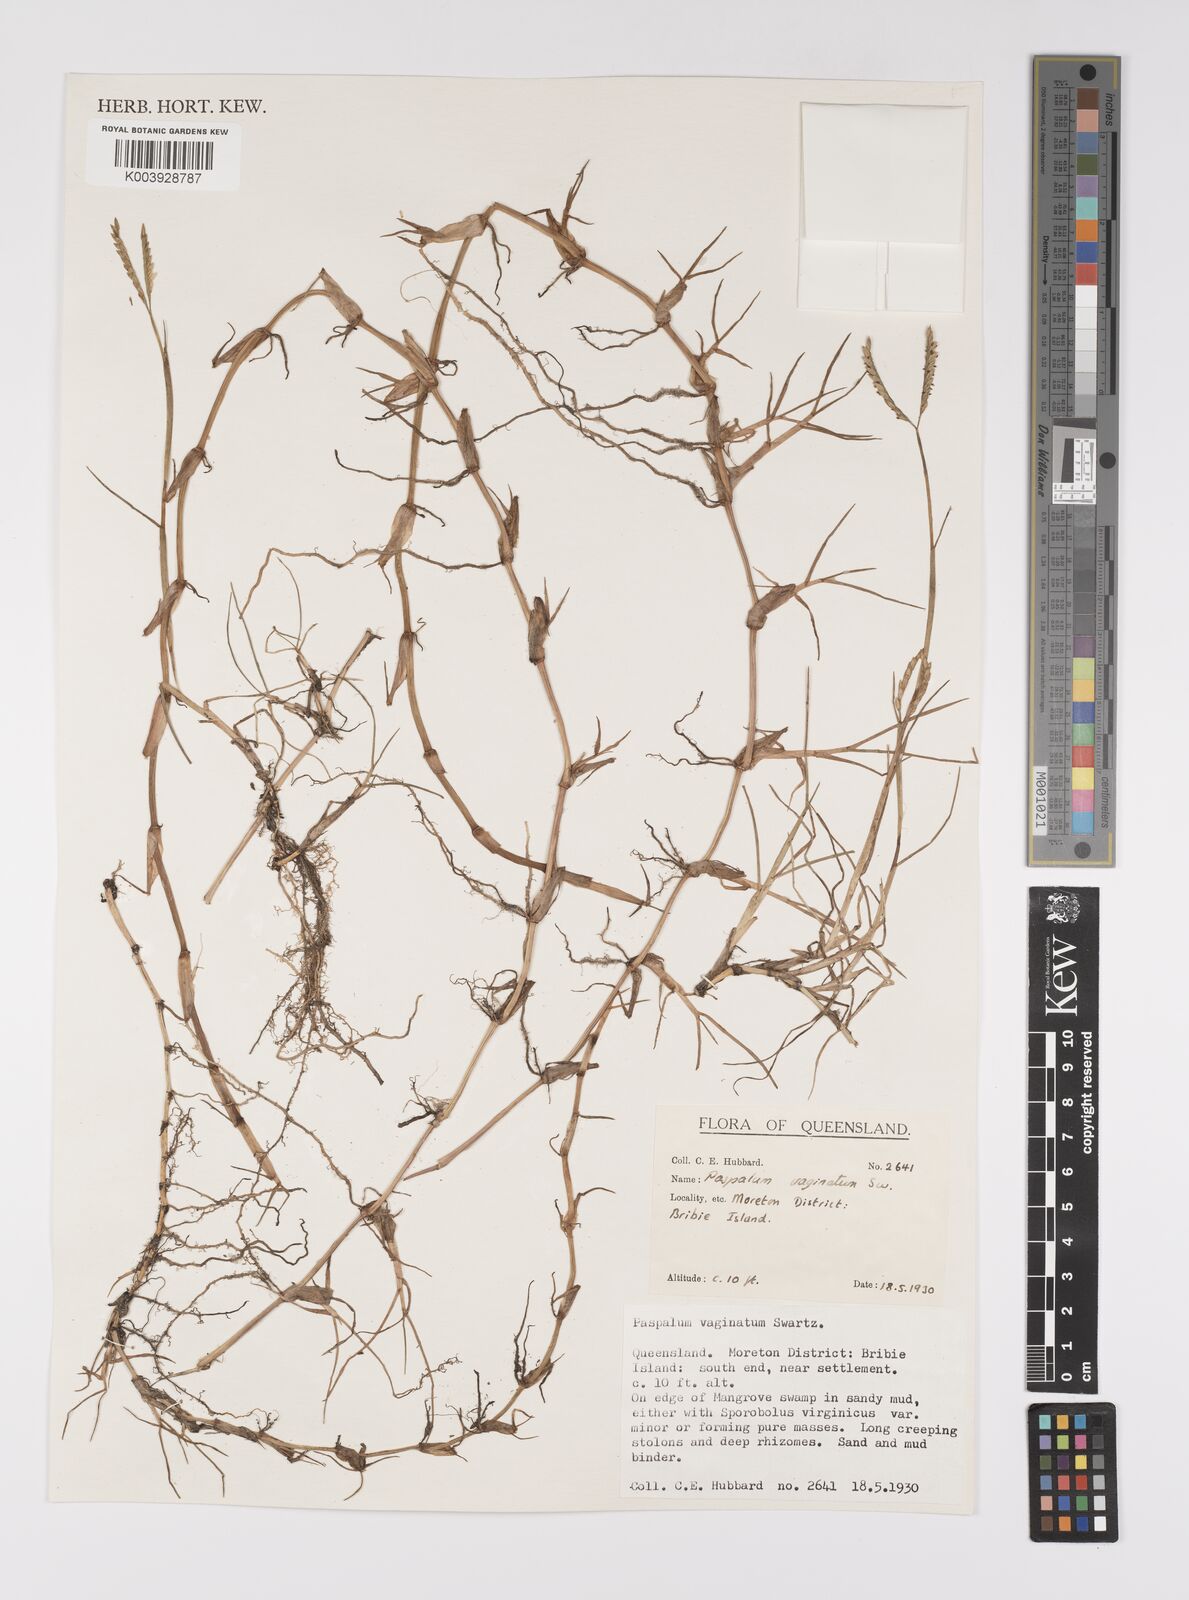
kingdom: Plantae
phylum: Tracheophyta
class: Liliopsida
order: Poales
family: Poaceae
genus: Paspalum
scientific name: Paspalum vaginatum
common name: Seashore paspalum
